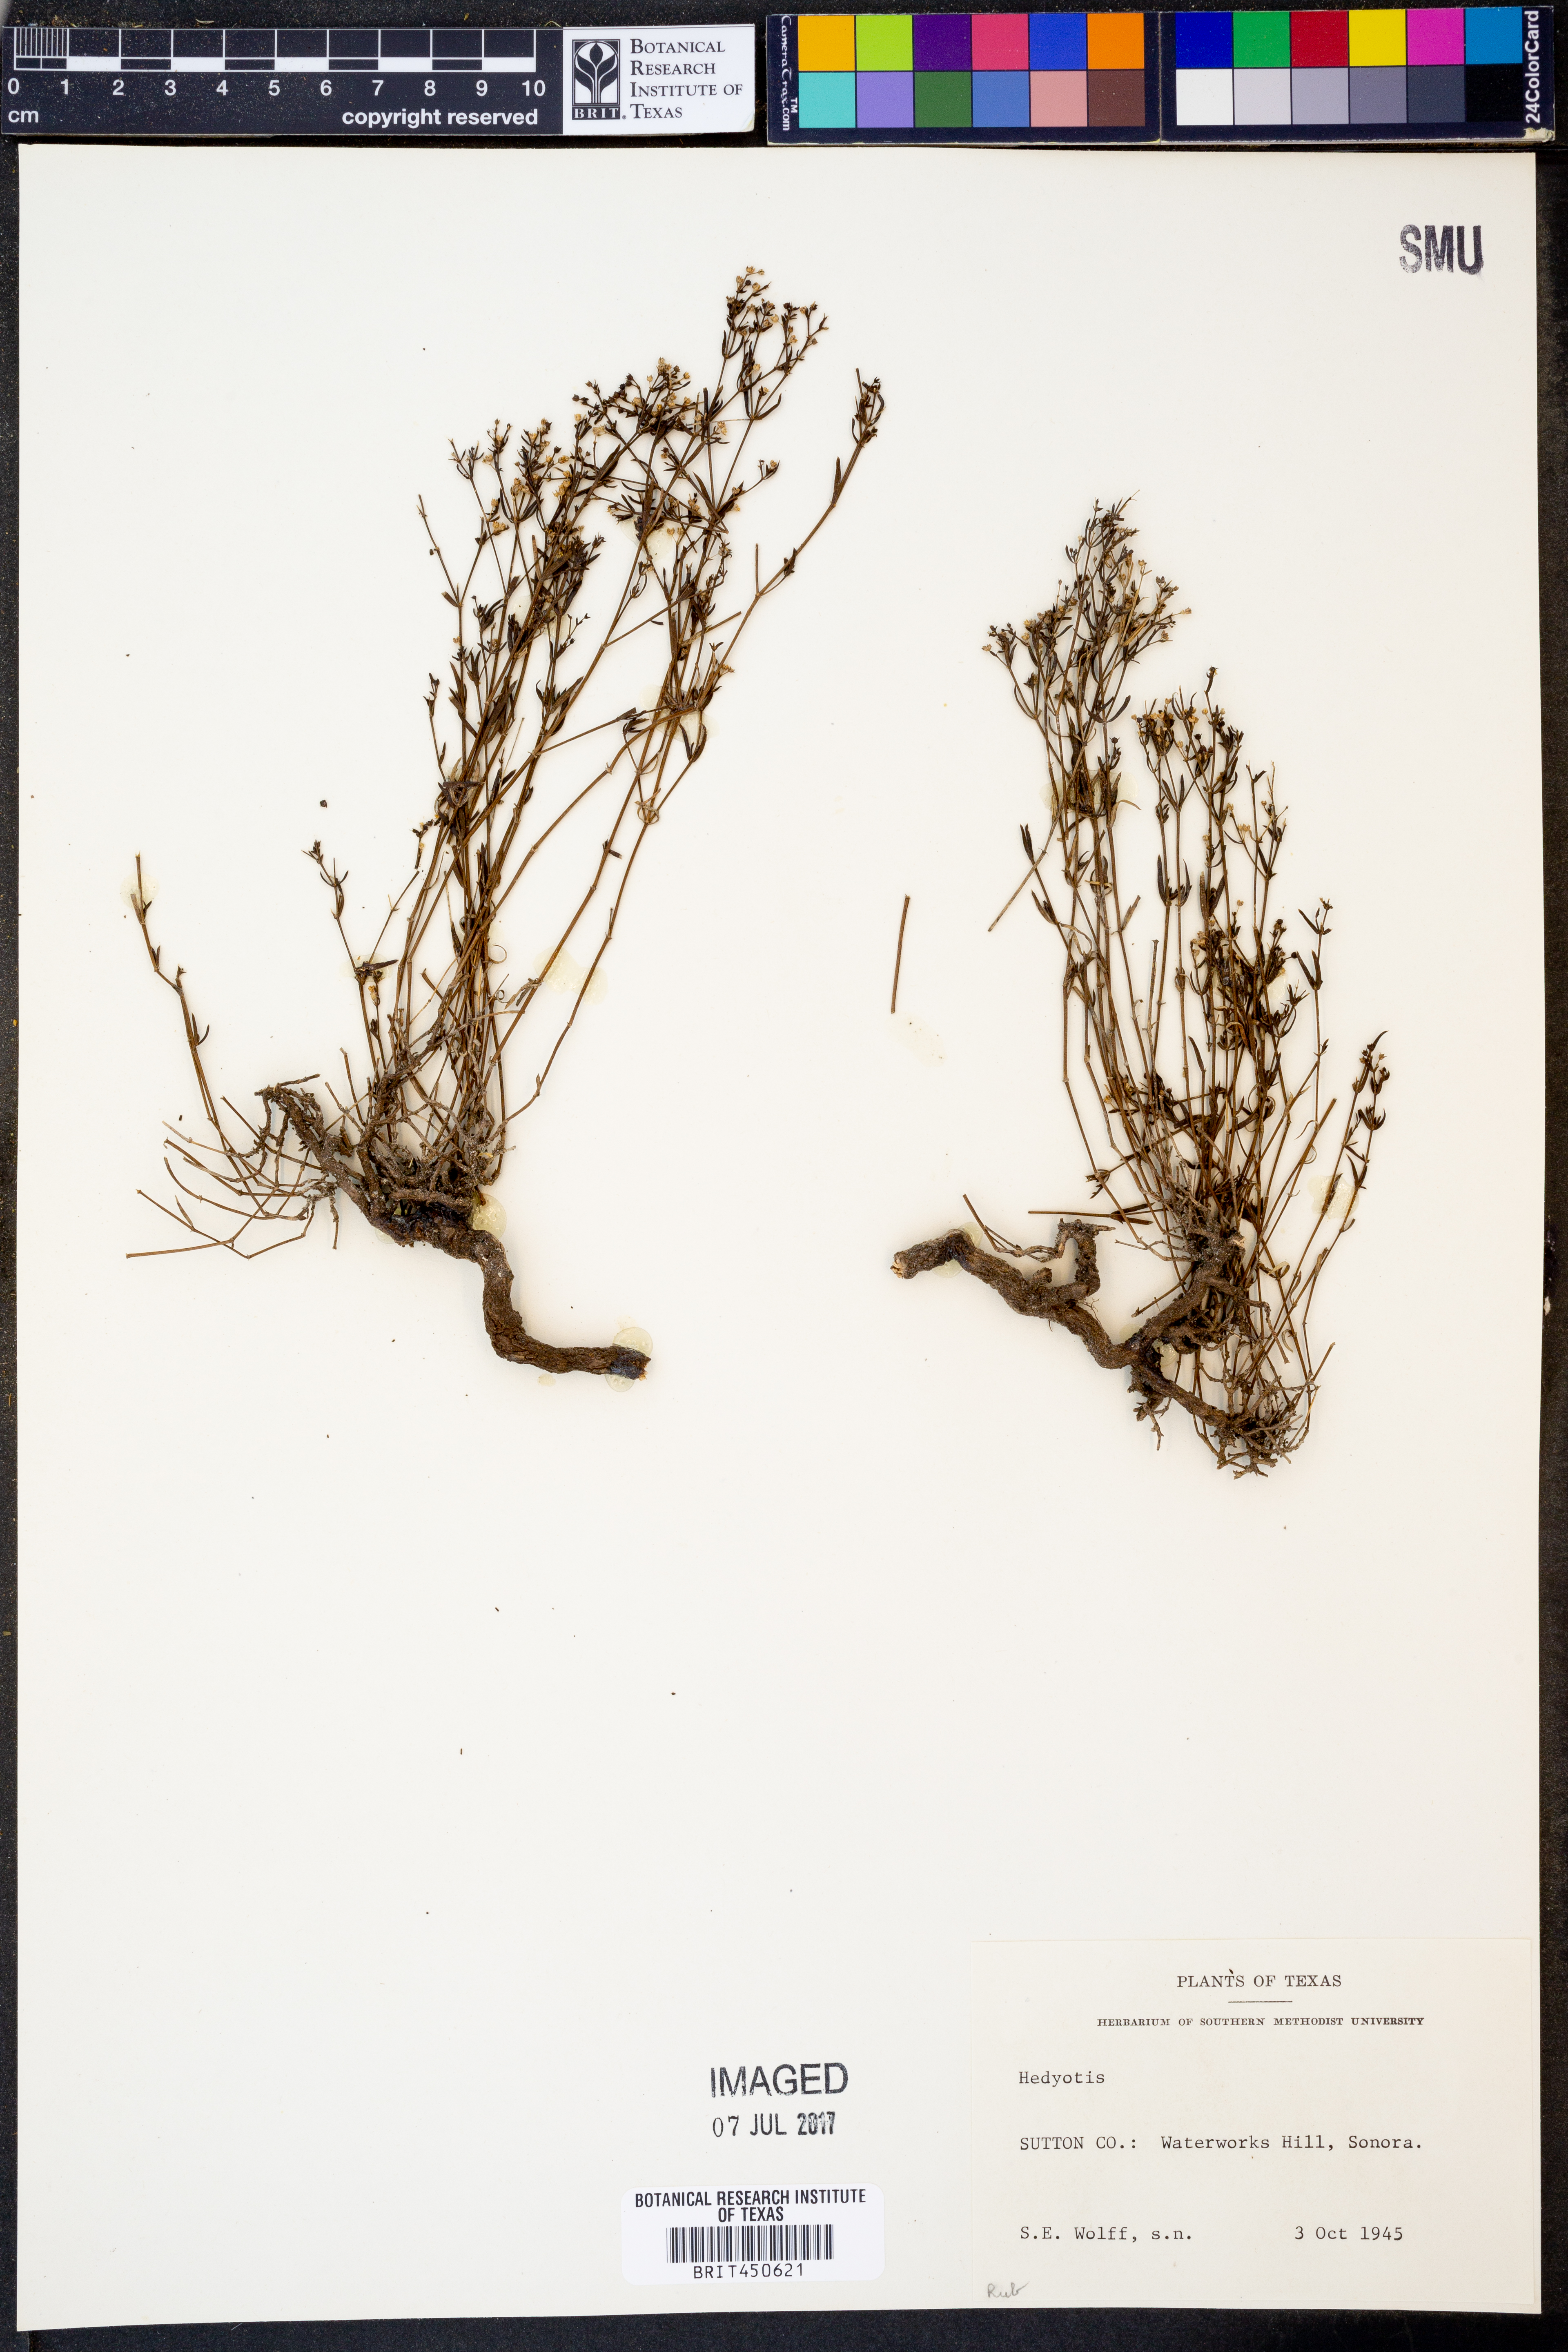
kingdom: Plantae
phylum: Tracheophyta
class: Magnoliopsida
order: Gentianales
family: Rubiaceae
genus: Hedyotis
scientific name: Hedyotis
